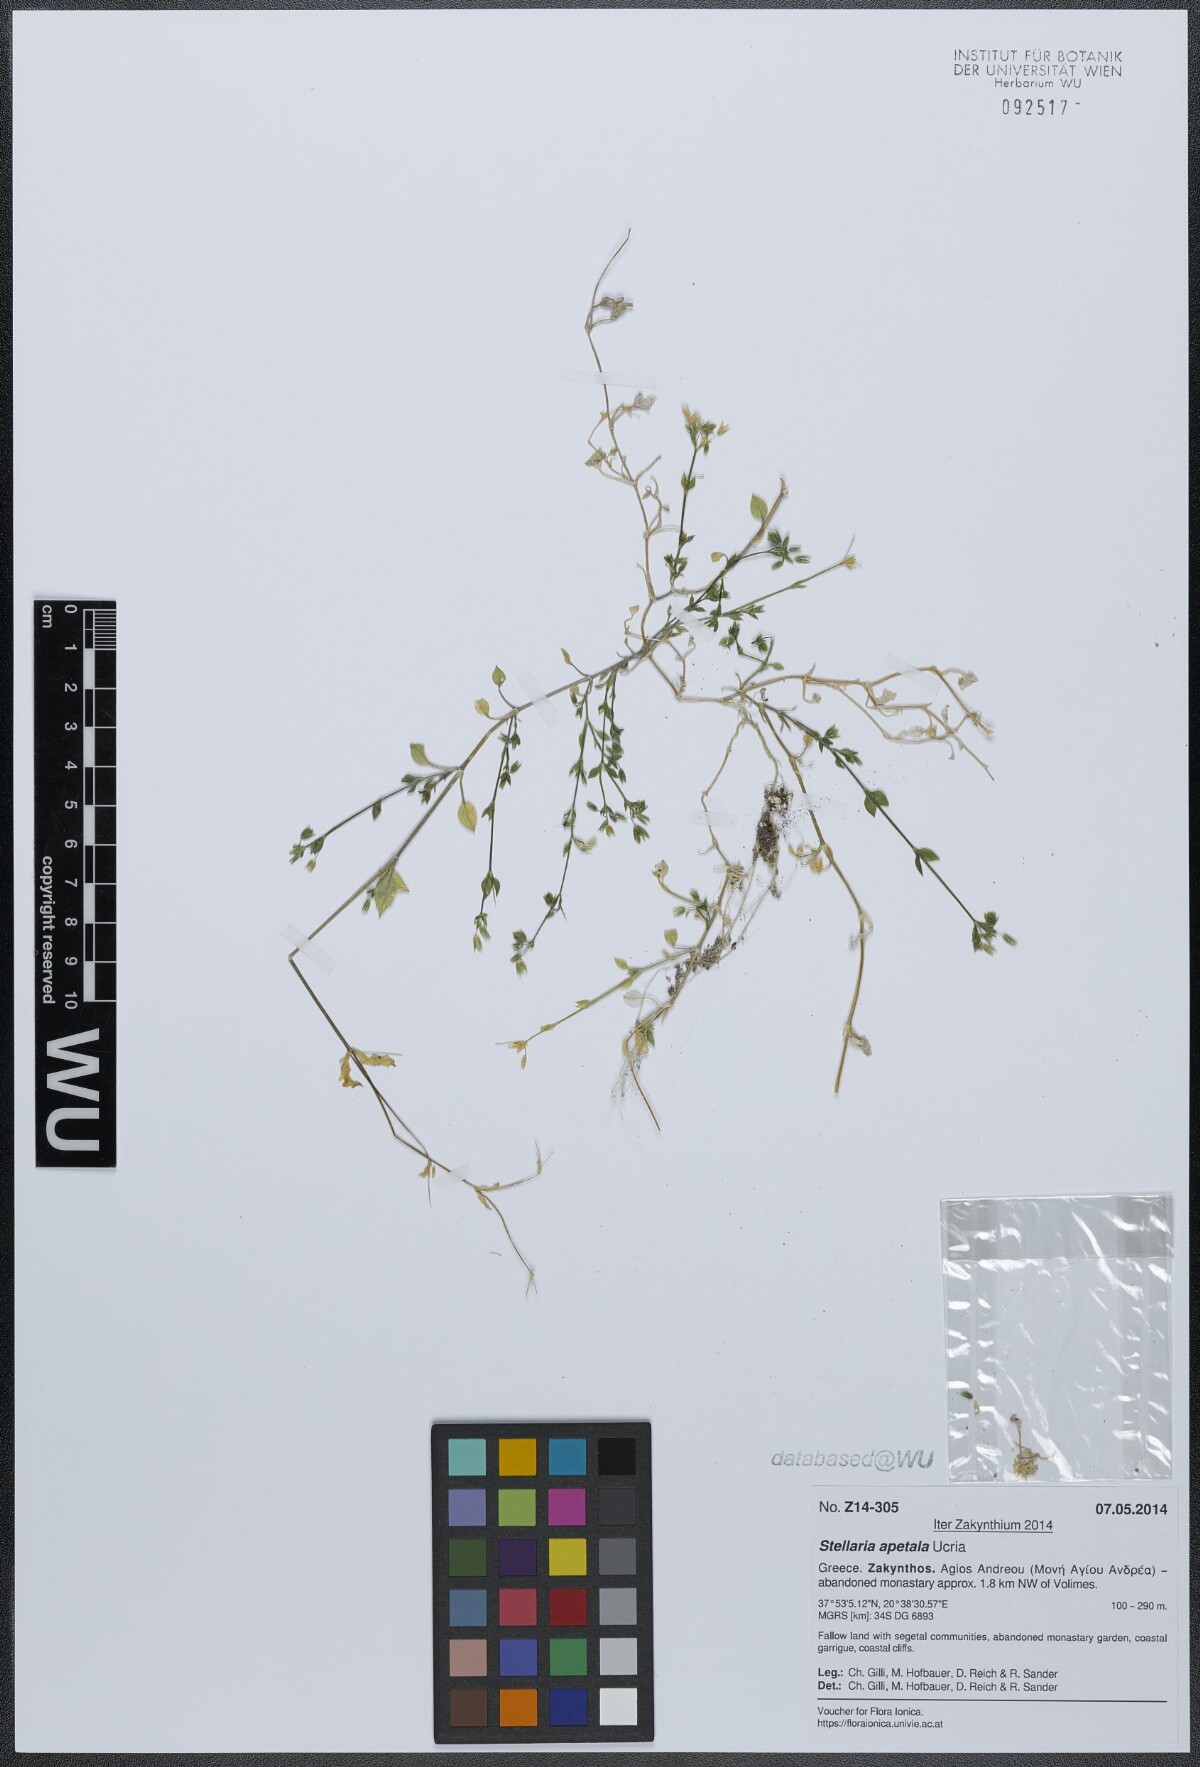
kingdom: Plantae
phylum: Tracheophyta
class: Magnoliopsida
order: Caryophyllales
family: Caryophyllaceae
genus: Stellaria
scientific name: Stellaria apetala
